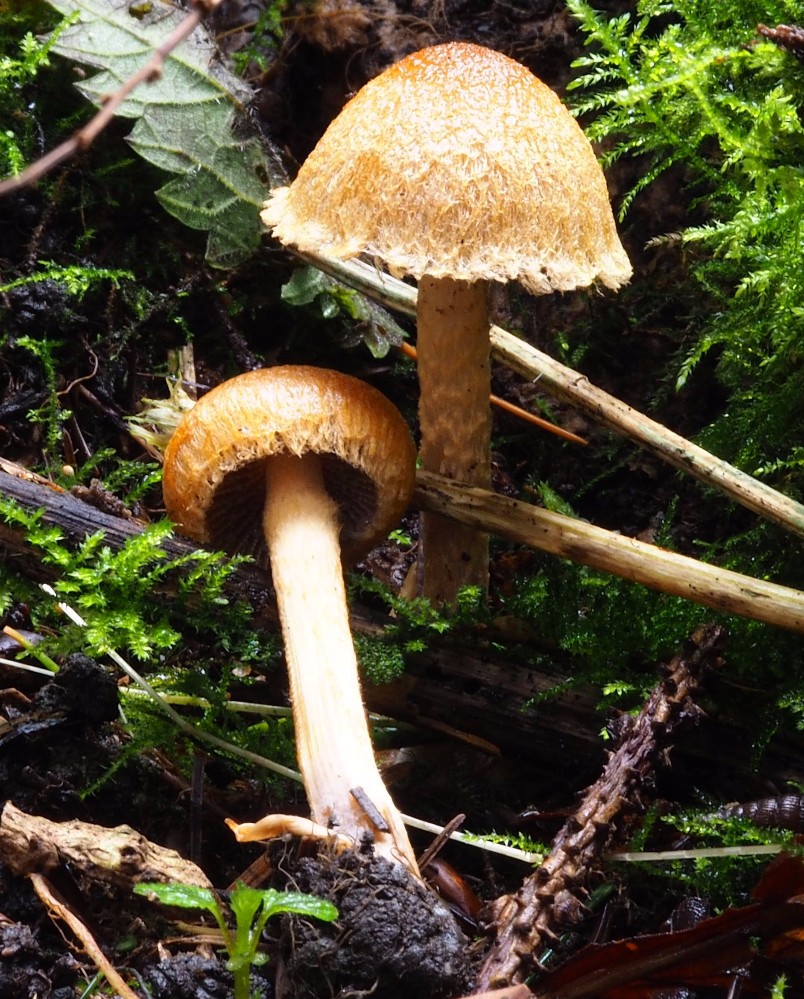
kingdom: Fungi
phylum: Basidiomycota
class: Agaricomycetes
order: Agaricales
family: Psathyrellaceae
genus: Lacrymaria
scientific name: Lacrymaria pyrotricha
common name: ildhåret mørkhat
